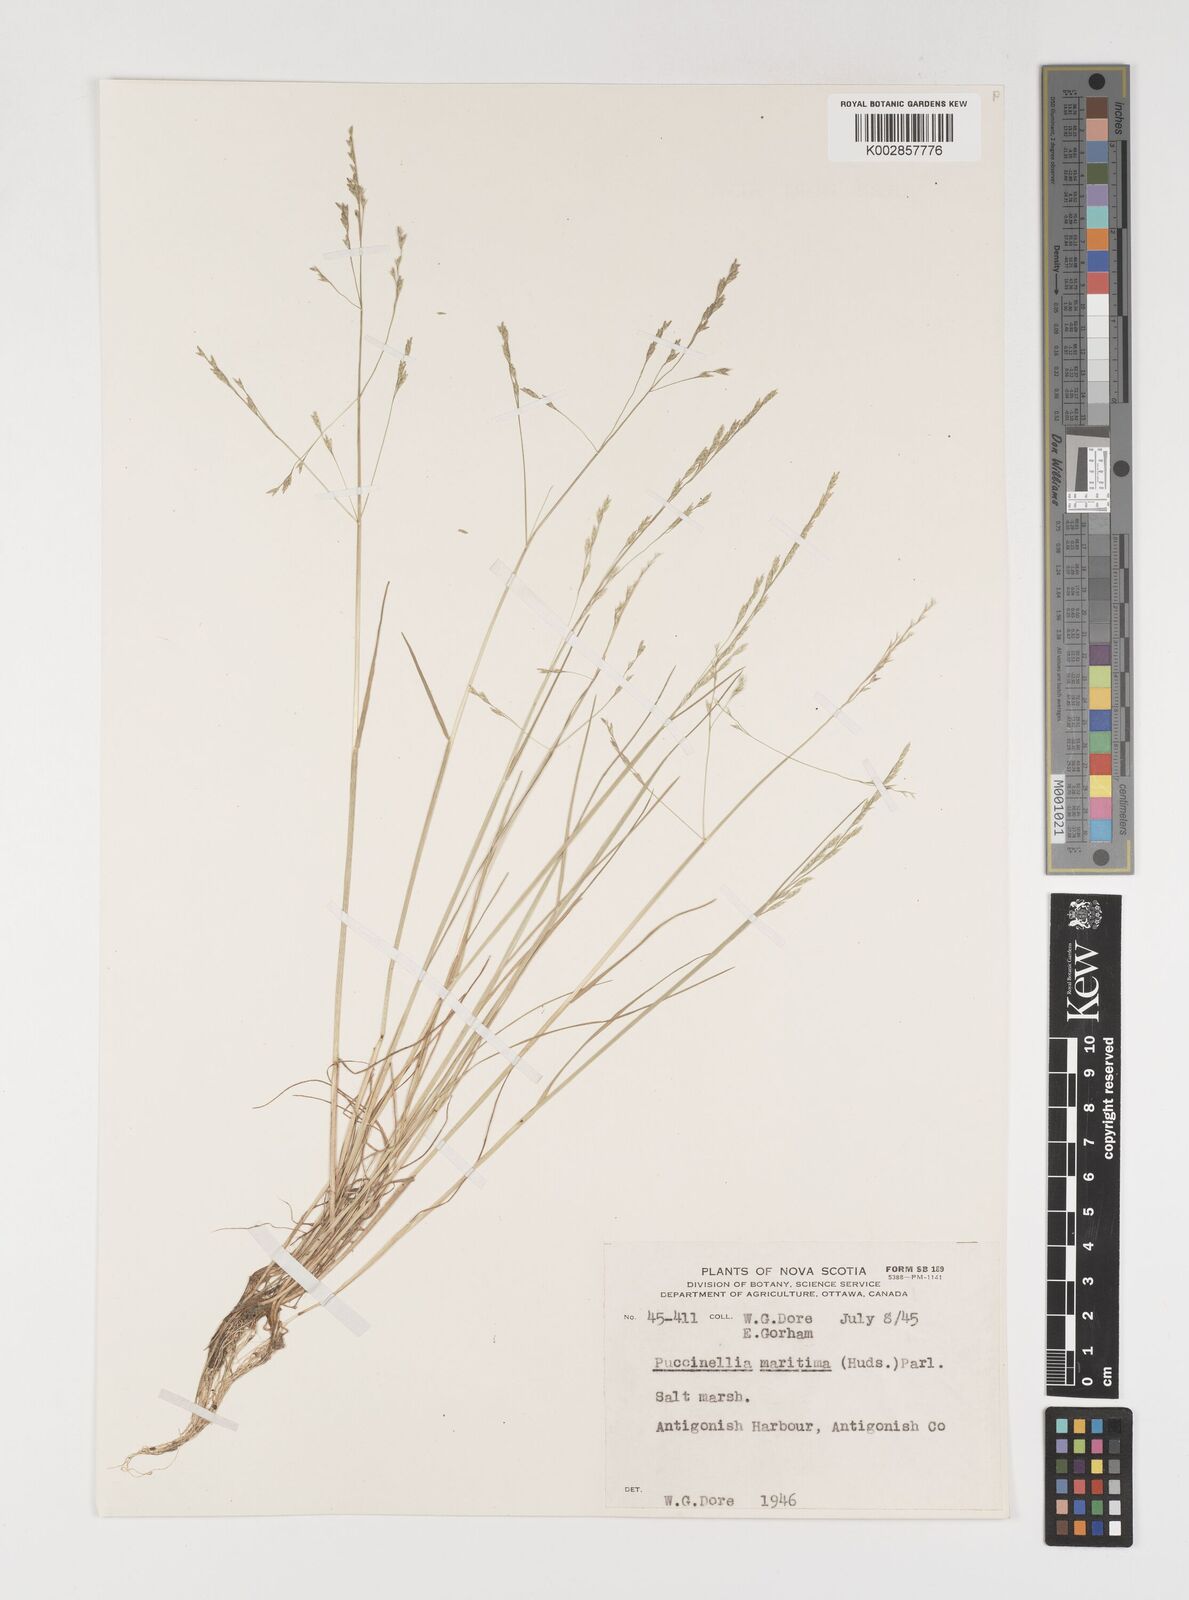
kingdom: Plantae
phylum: Tracheophyta
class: Liliopsida
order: Poales
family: Poaceae
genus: Puccinellia
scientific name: Puccinellia pumila
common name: Dwarf alkaligrass
